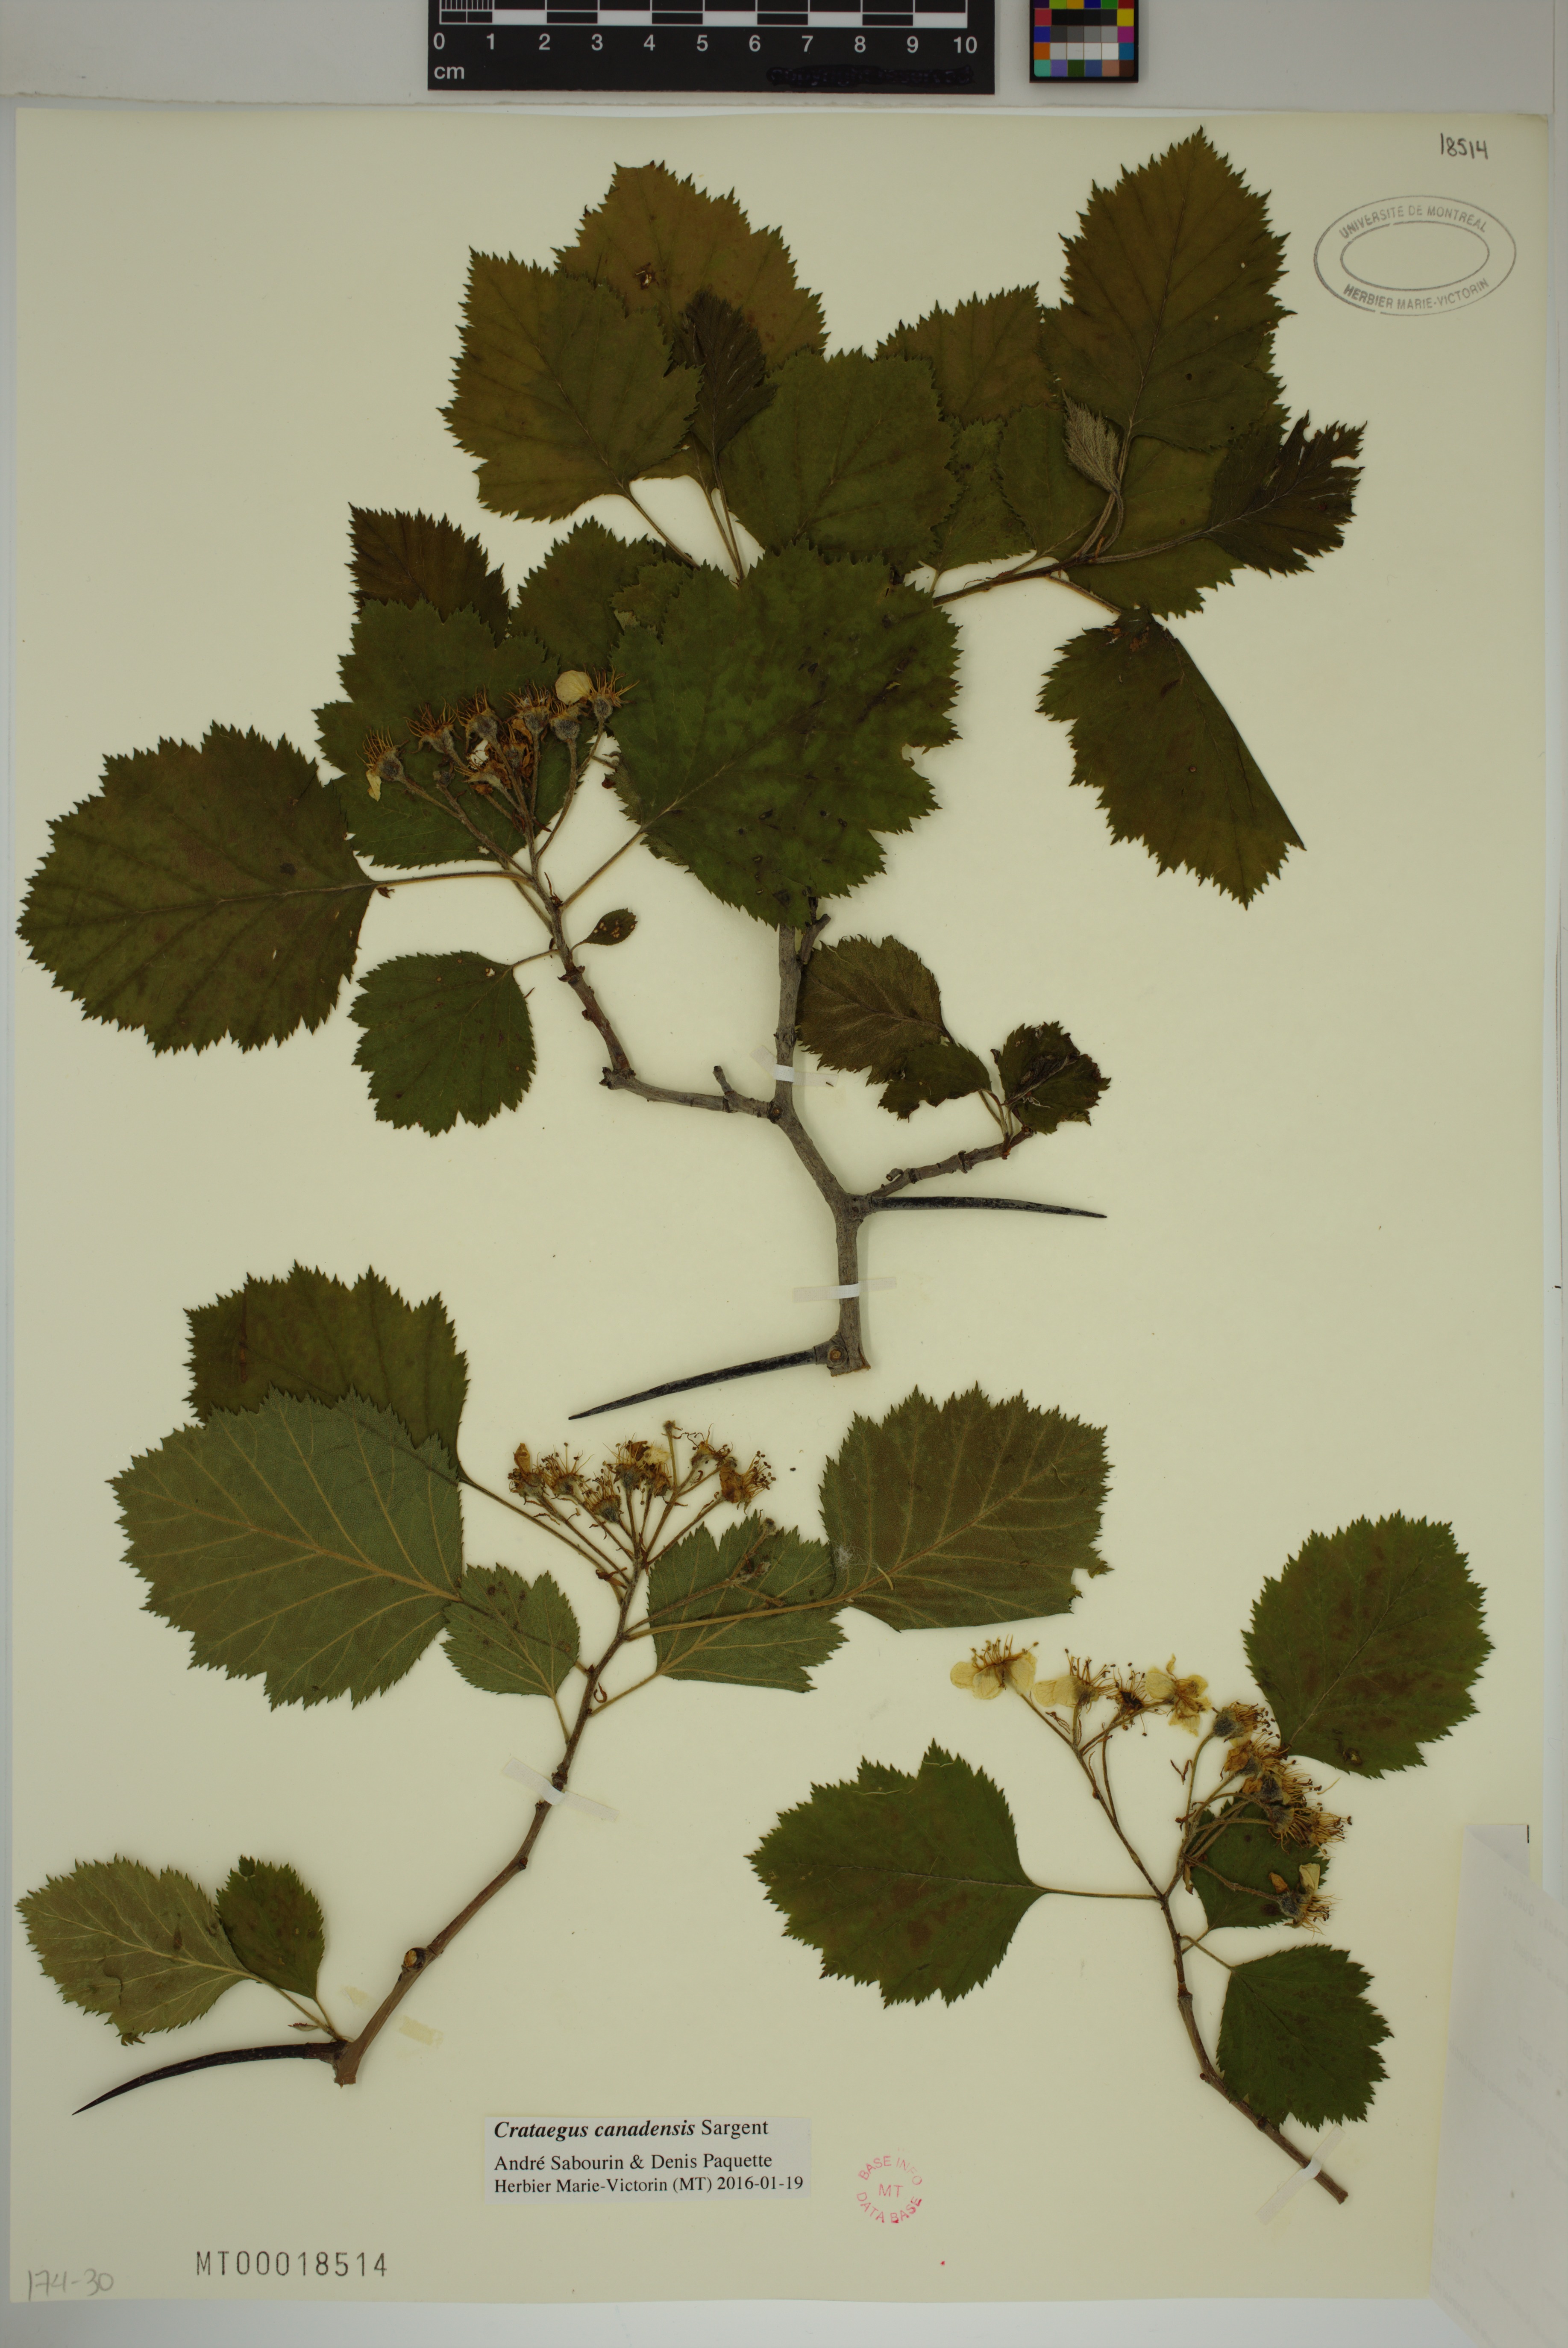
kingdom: Plantae
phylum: Tracheophyta
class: Magnoliopsida
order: Rosales
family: Rosaceae
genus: Crataegus
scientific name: Crataegus submollis
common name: Hairy cockspurthorn
